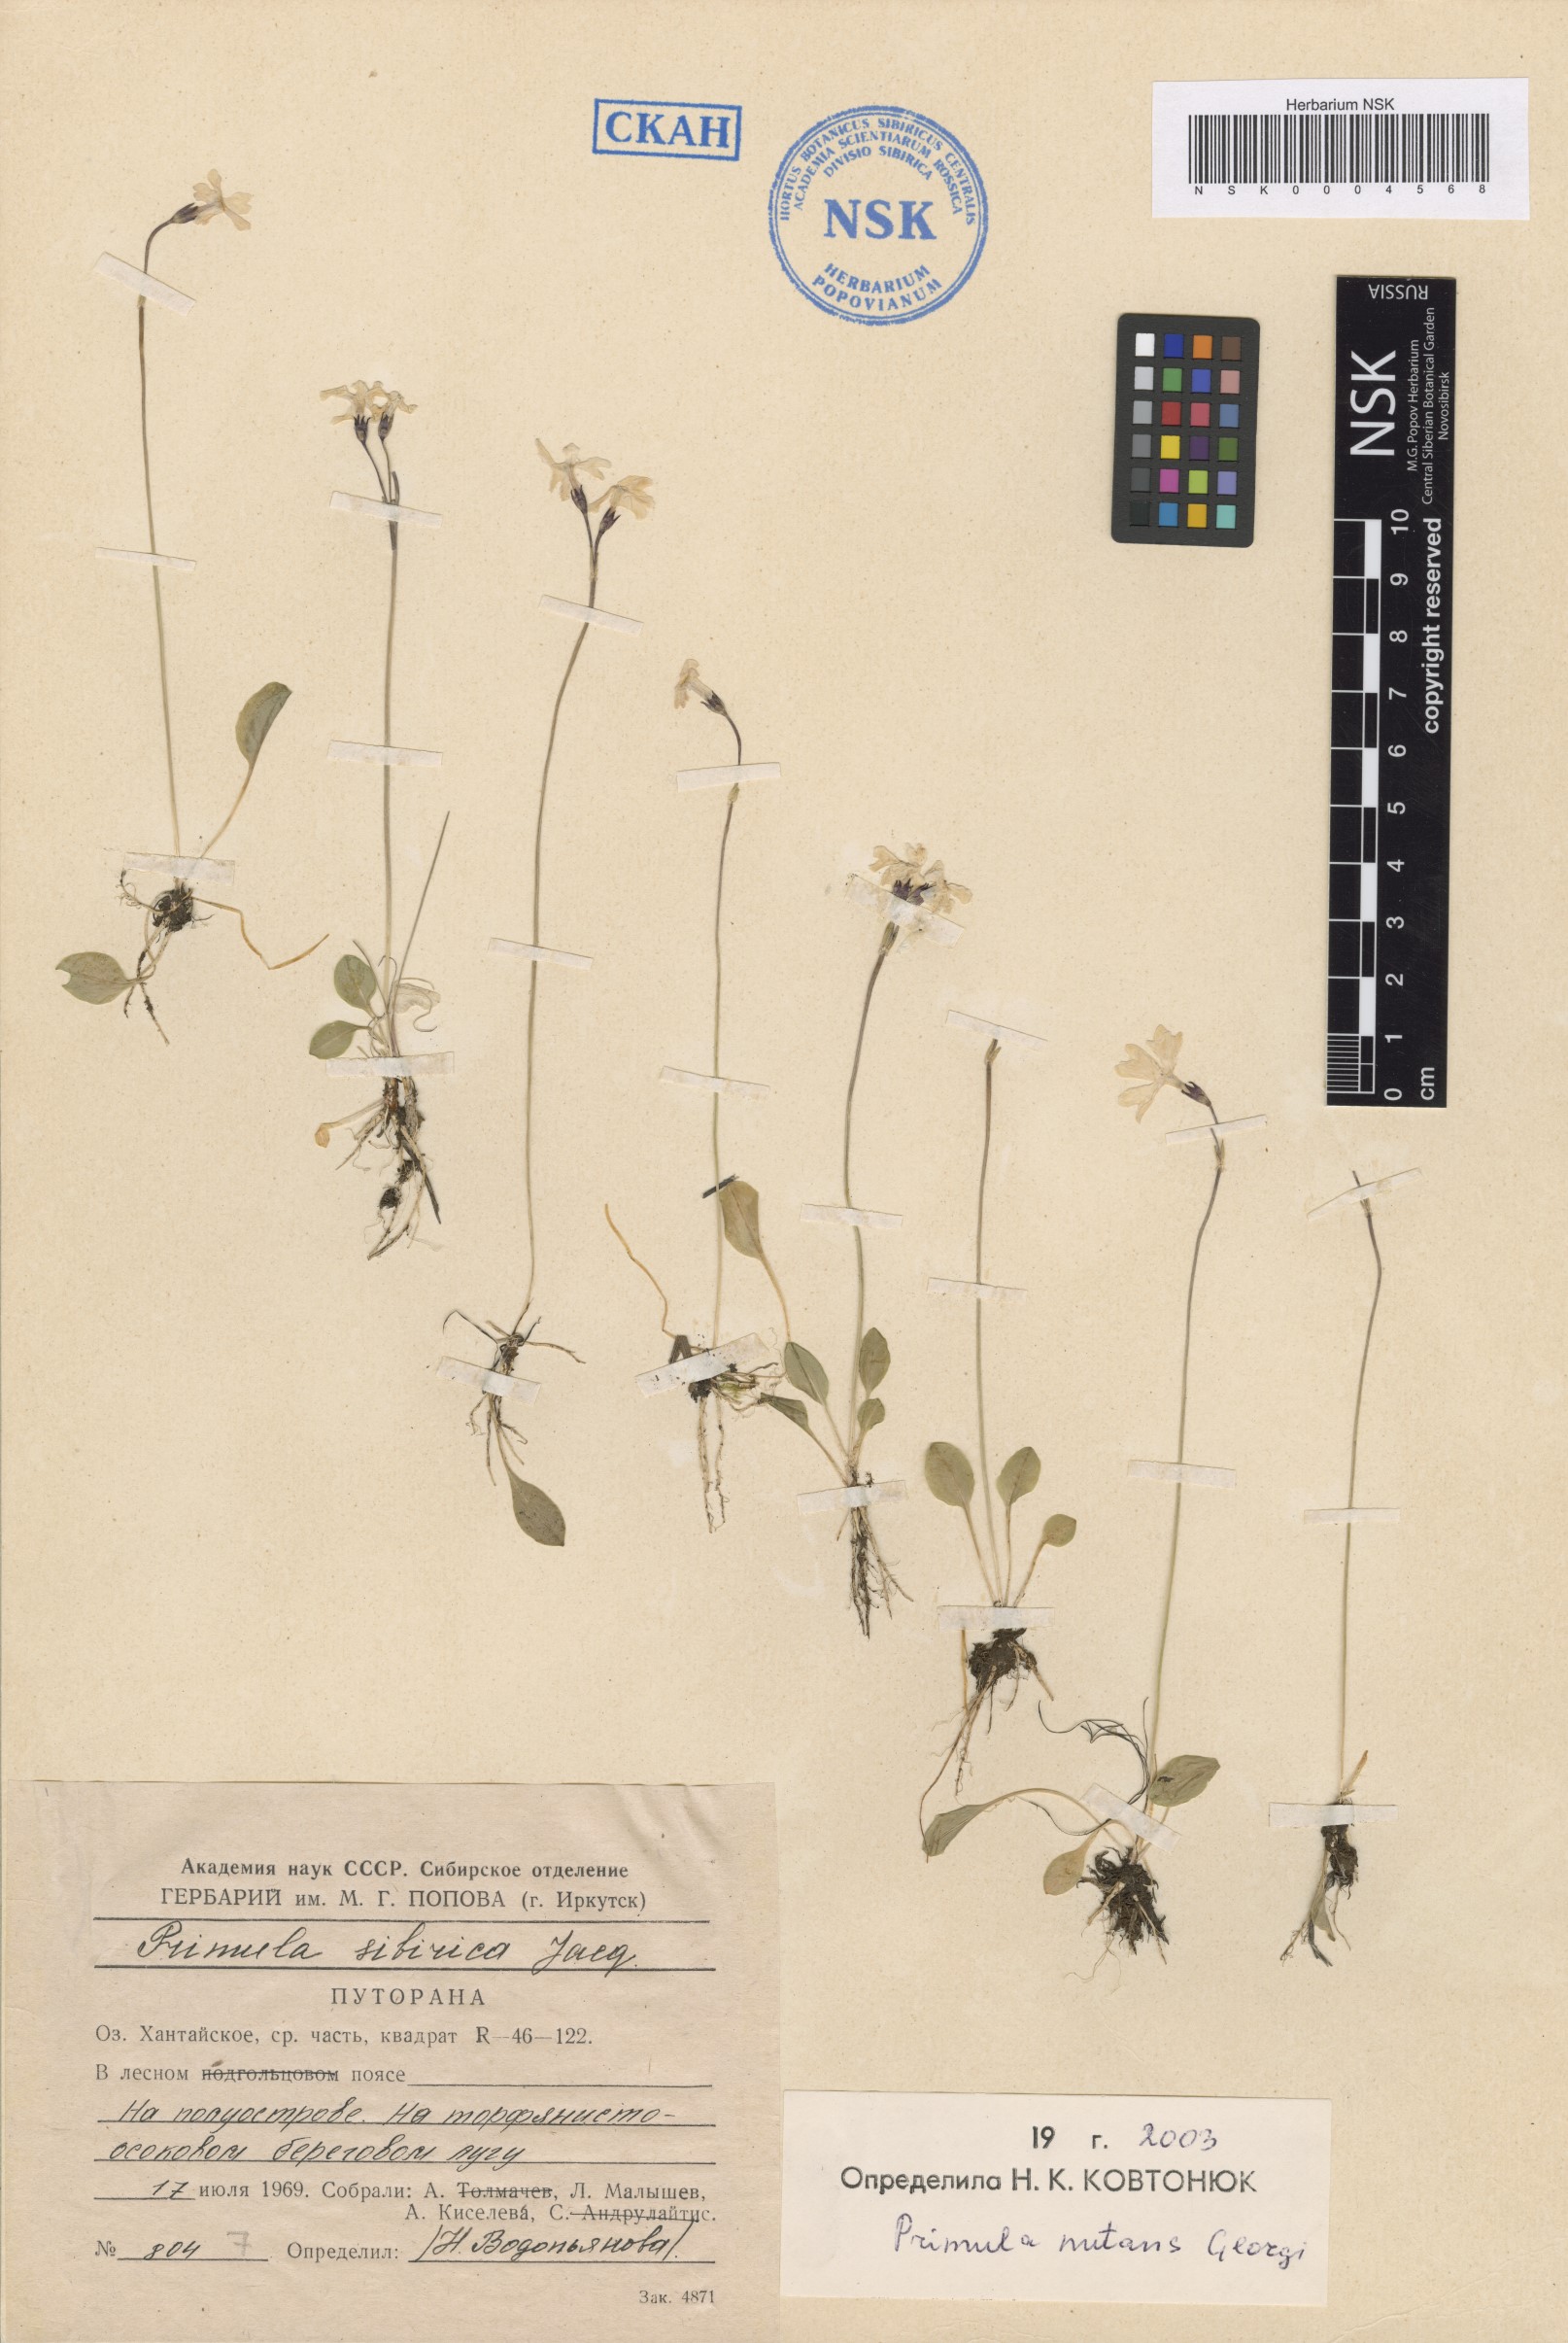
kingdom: Plantae
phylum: Tracheophyta
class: Magnoliopsida
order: Ericales
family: Primulaceae
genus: Primula
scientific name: Primula nutans
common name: Siberian primrose
